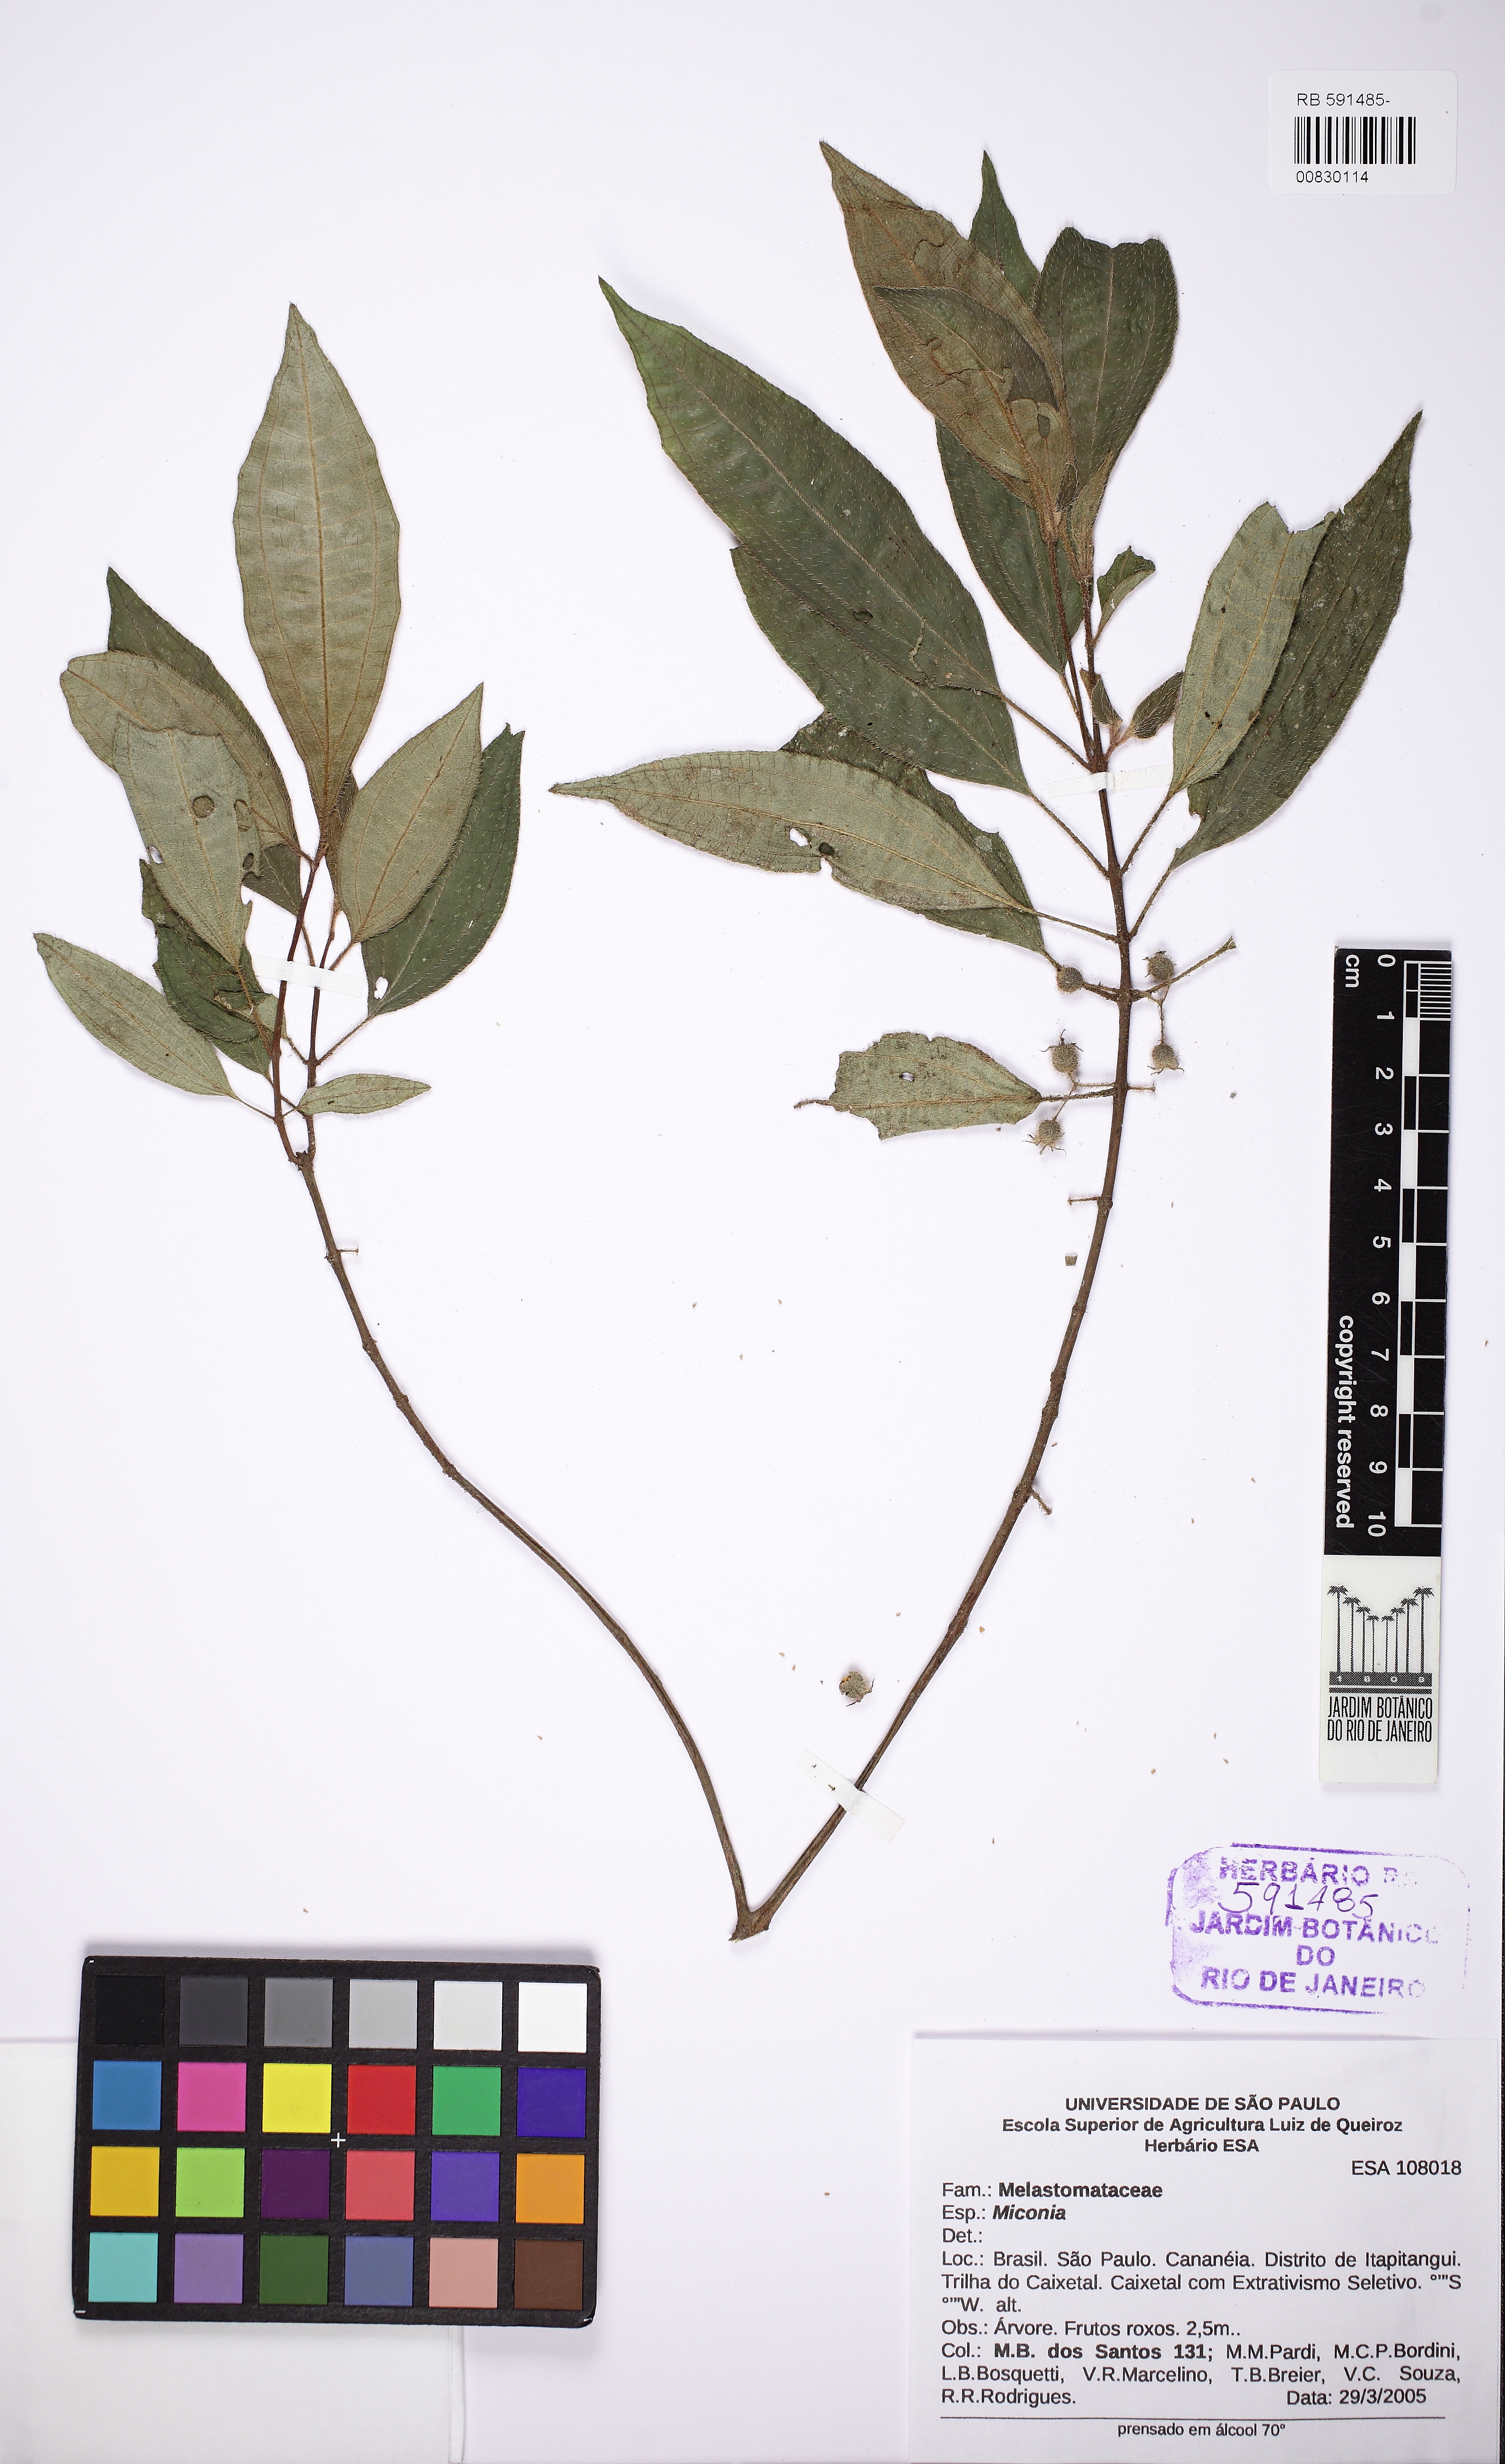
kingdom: Plantae
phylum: Tracheophyta
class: Magnoliopsida
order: Myrtales
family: Melastomataceae
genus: Ossaea
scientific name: Ossaea
